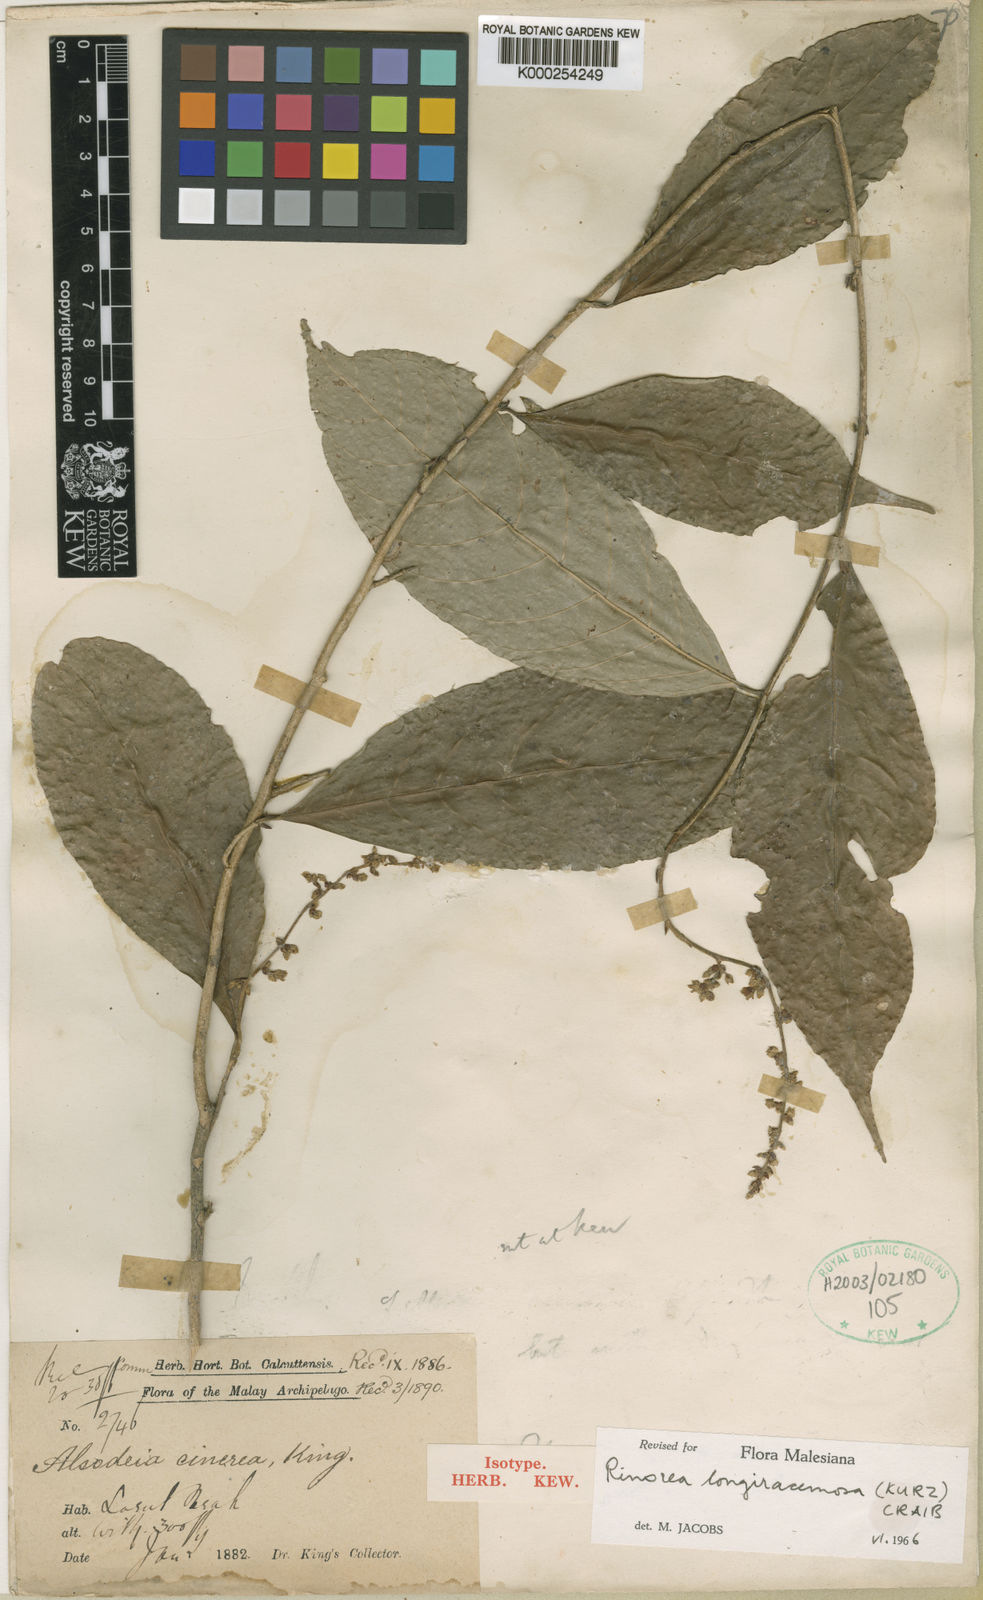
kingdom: Plantae
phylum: Tracheophyta
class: Magnoliopsida
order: Malpighiales
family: Violaceae
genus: Viola
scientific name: Viola cinerea
